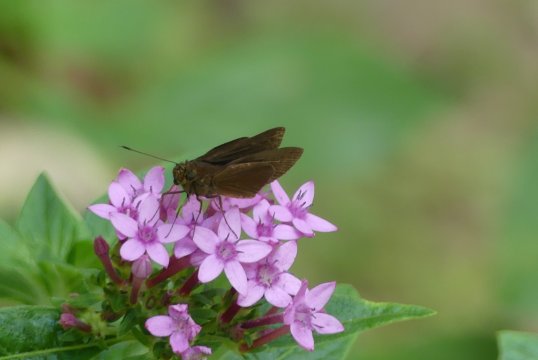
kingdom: Animalia
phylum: Arthropoda
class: Insecta
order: Lepidoptera
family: Hesperiidae
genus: Enosis
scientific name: Enosis immaculata
